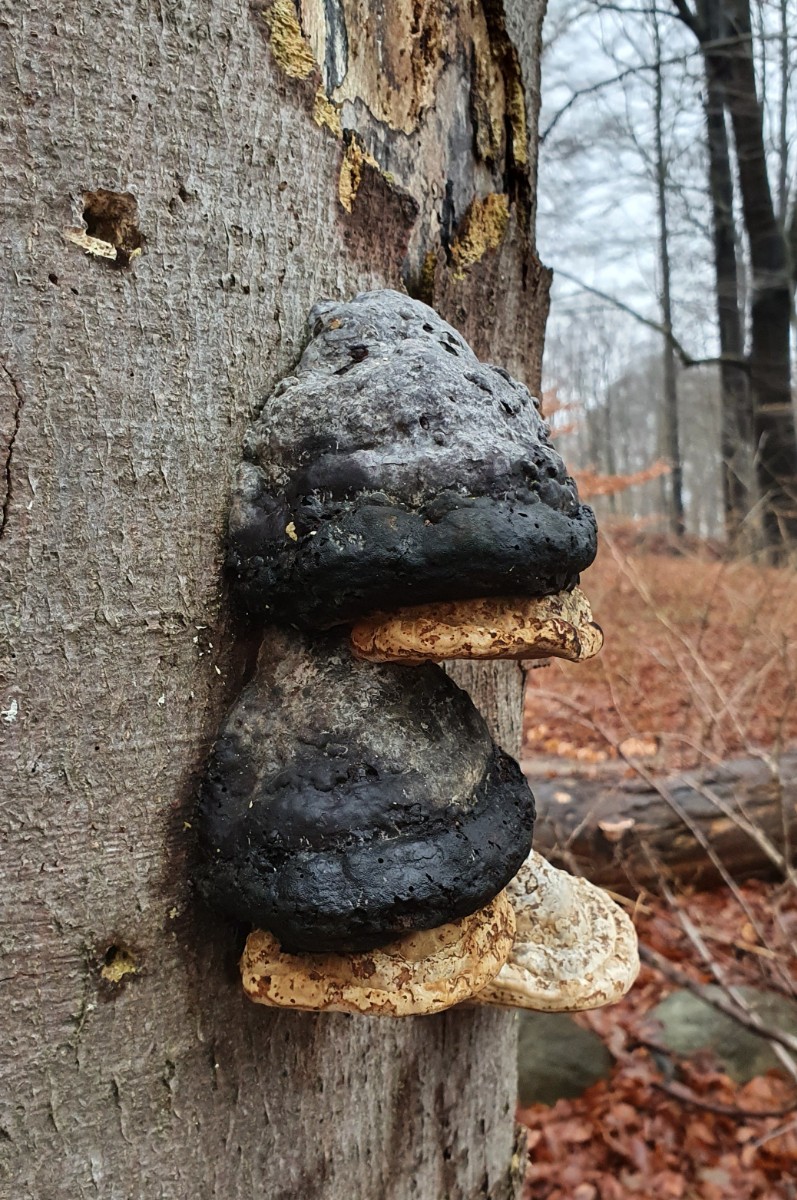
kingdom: Fungi
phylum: Basidiomycota
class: Agaricomycetes
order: Polyporales
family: Polyporaceae
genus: Fomes
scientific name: Fomes fomentarius
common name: tøndersvamp
